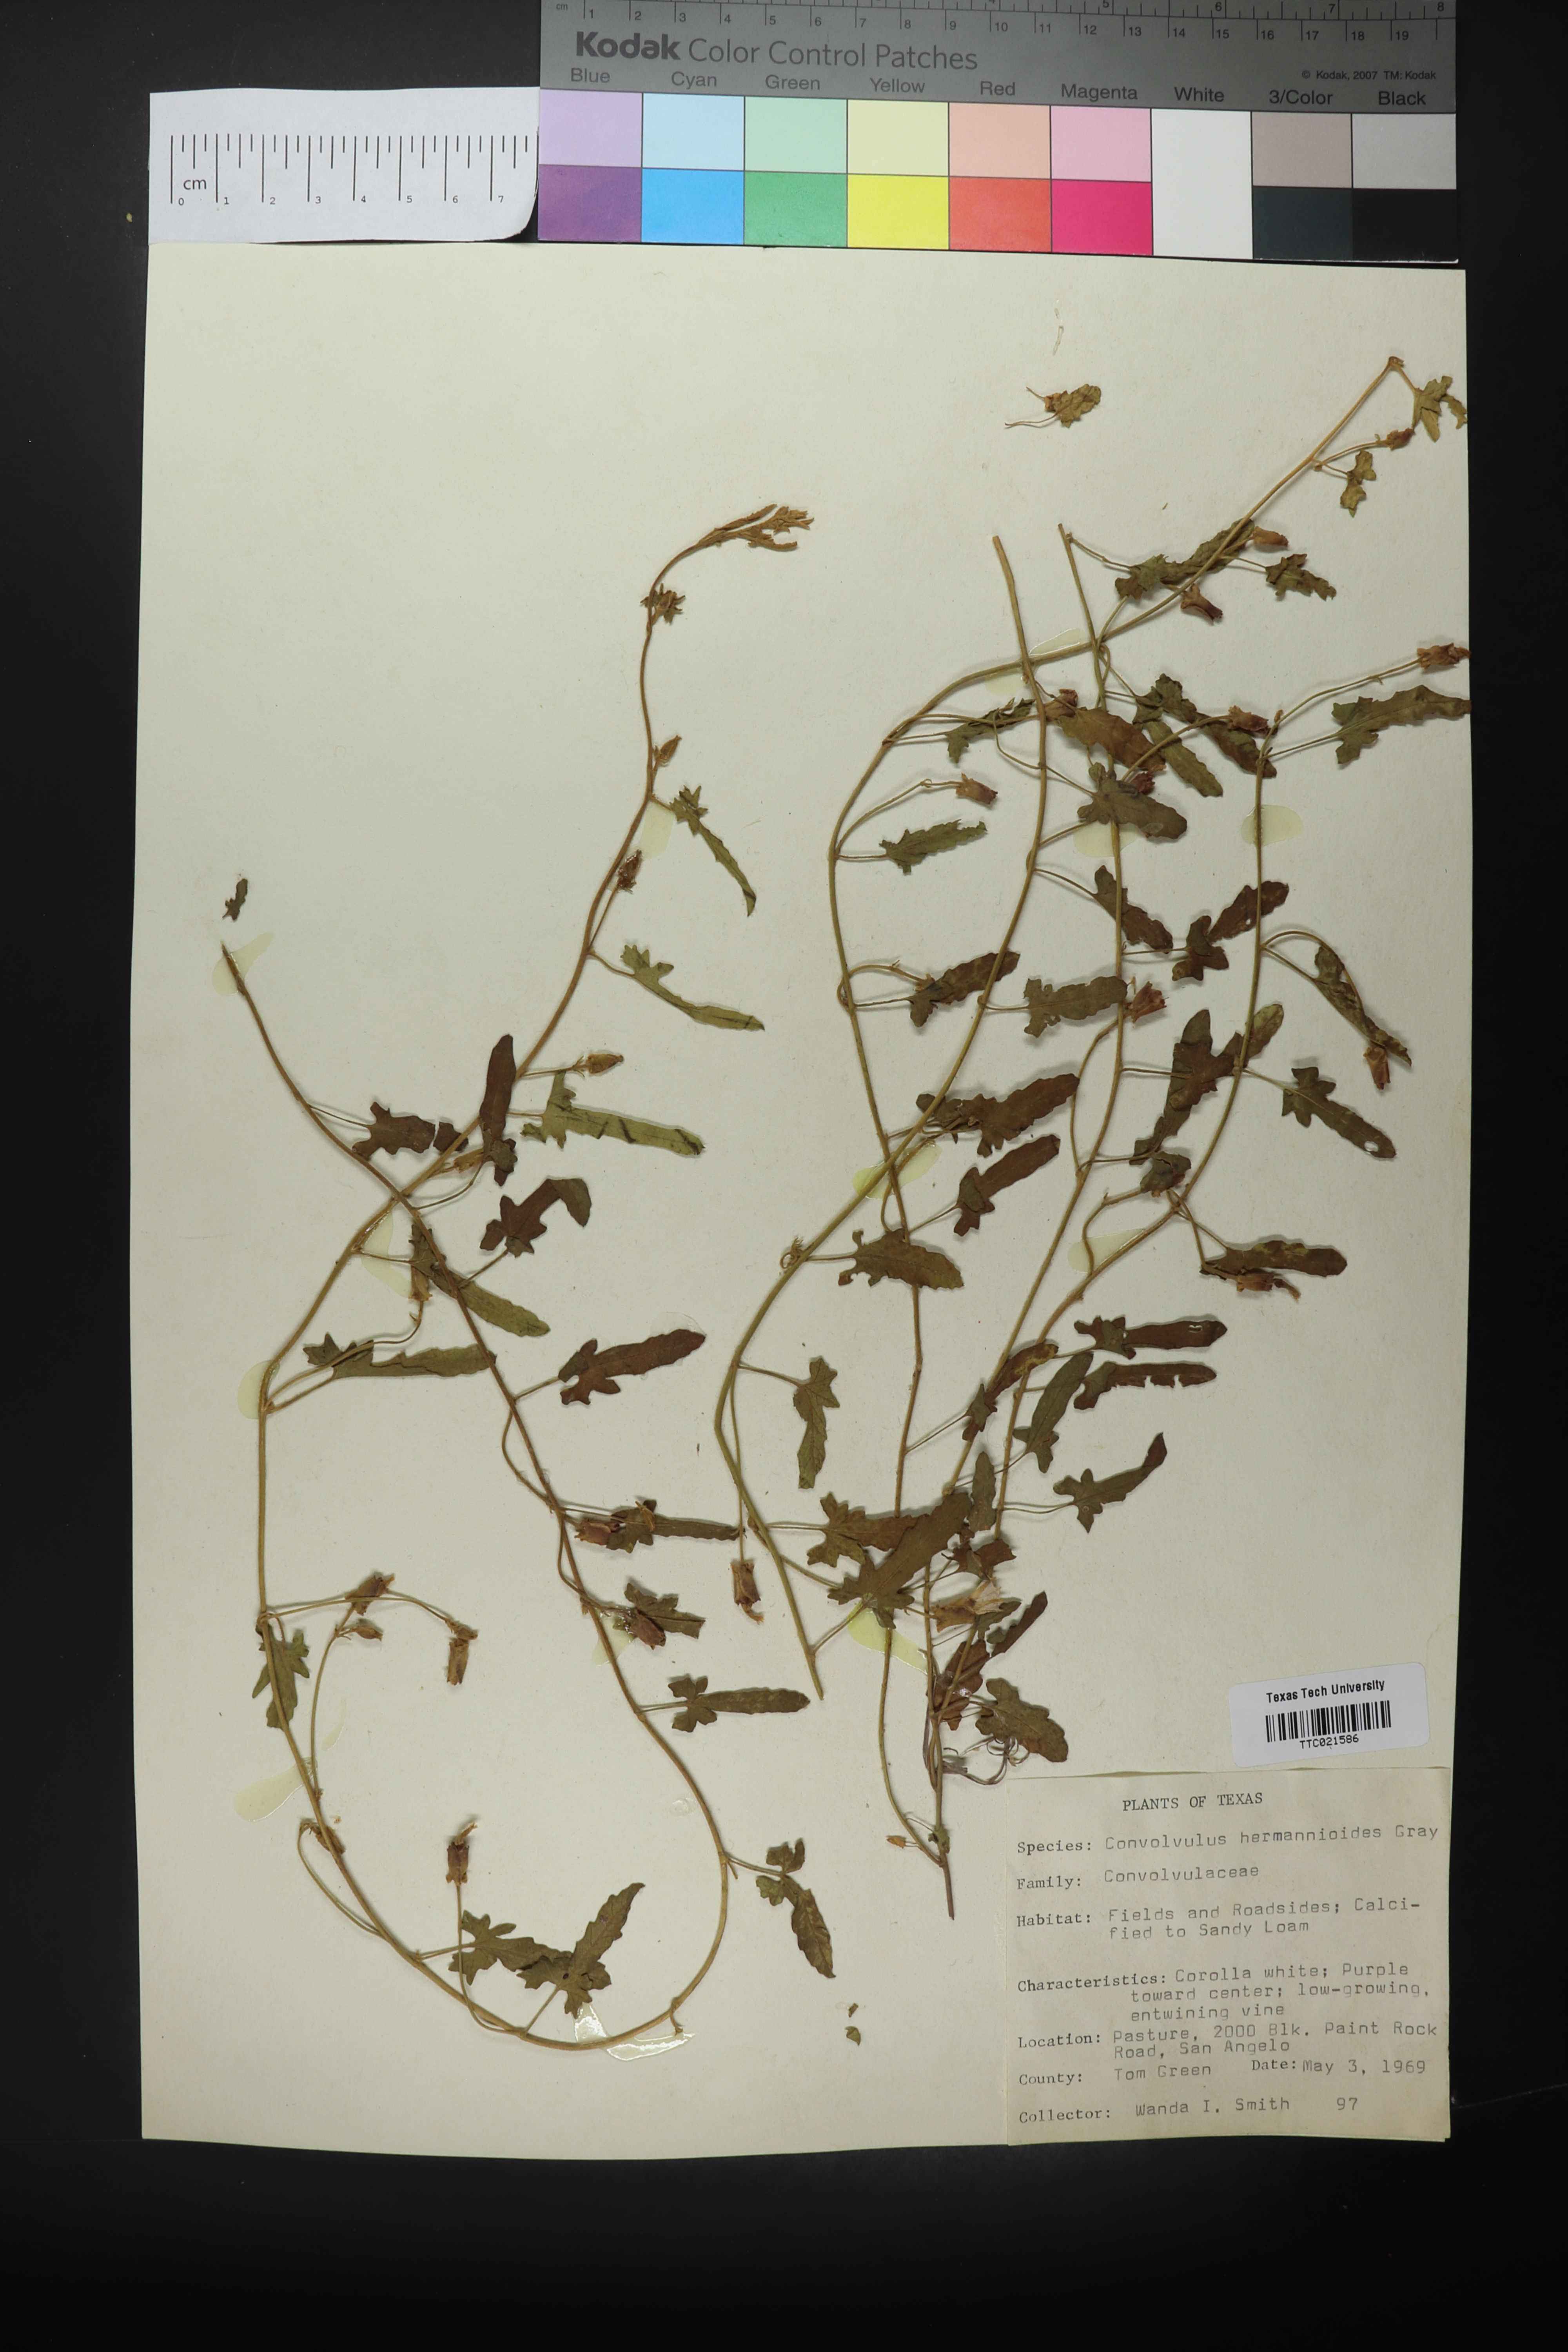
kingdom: Plantae
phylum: Tracheophyta
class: Magnoliopsida
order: Solanales
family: Convolvulaceae
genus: Convolvulus
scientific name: Convolvulus equitans
